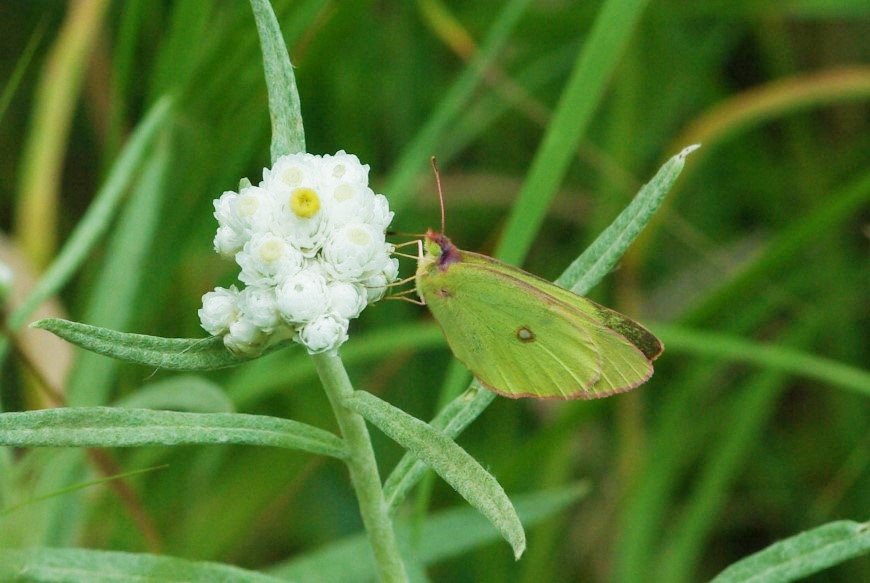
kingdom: Animalia
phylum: Arthropoda
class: Insecta
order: Lepidoptera
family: Pieridae
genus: Colias
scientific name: Colias interior
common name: Pink-edged Sulphur
